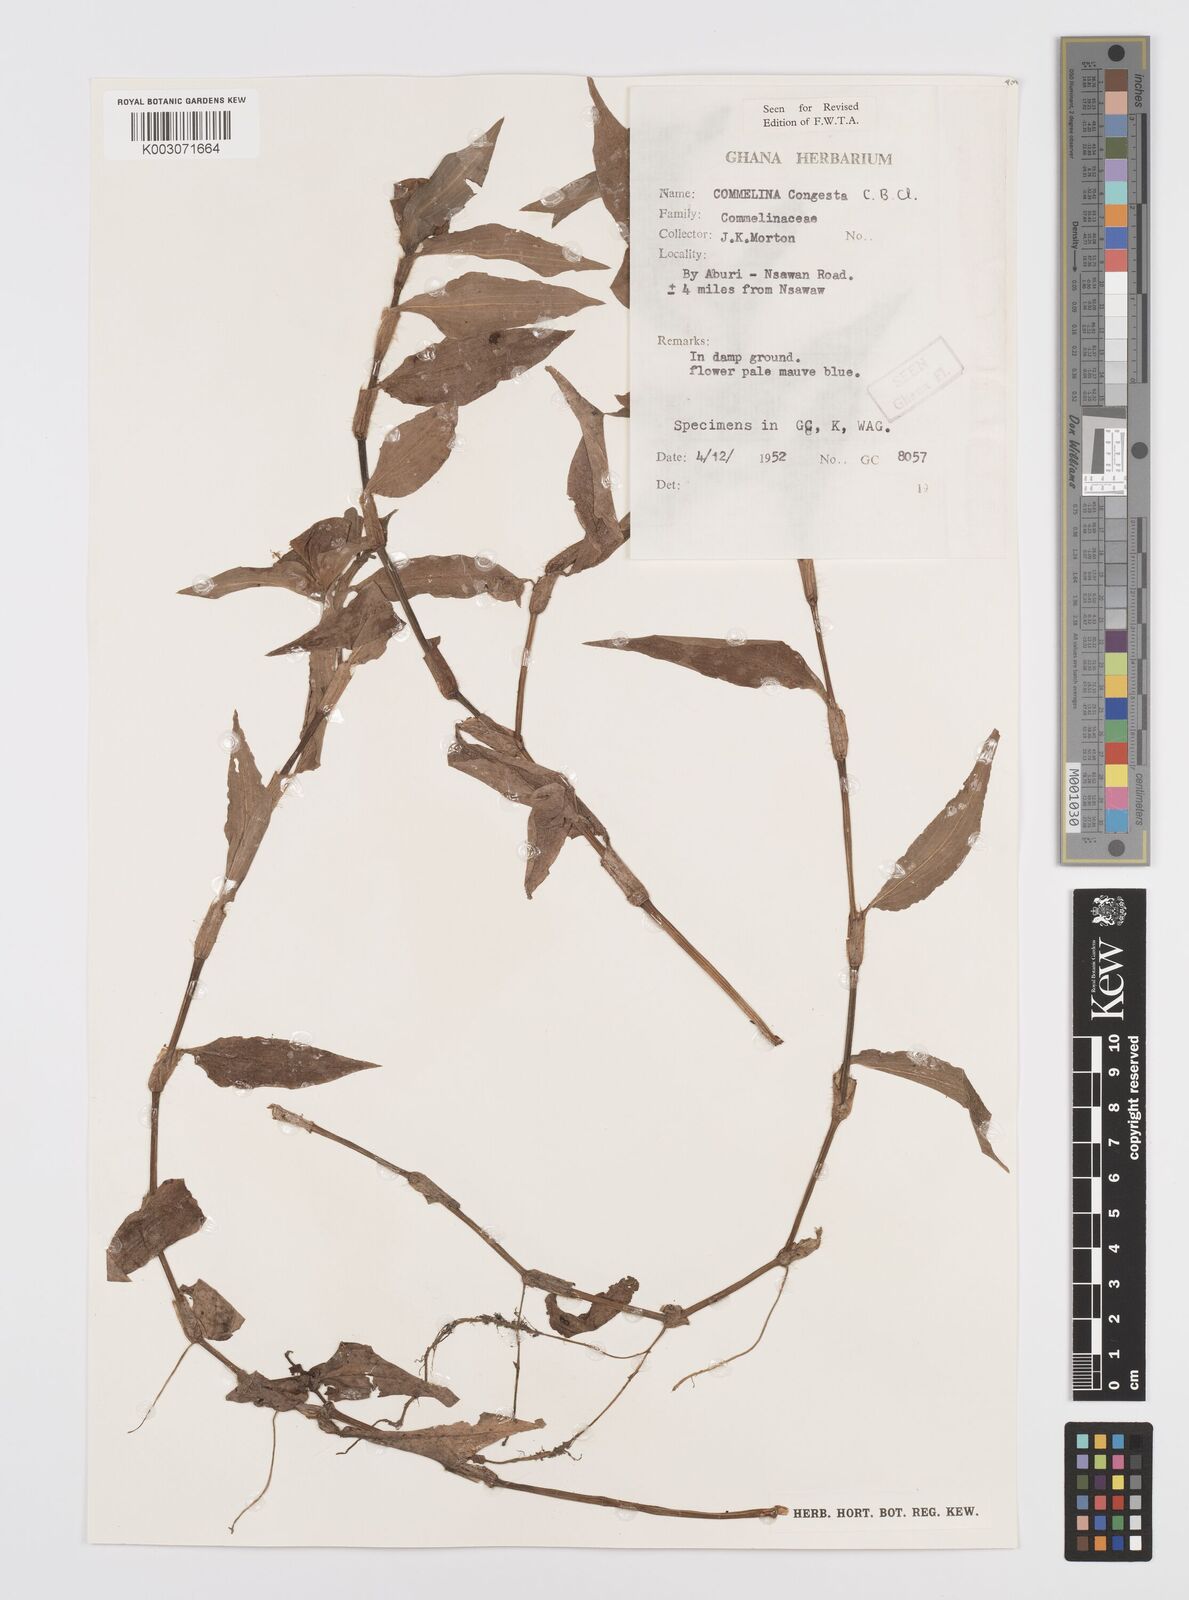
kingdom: Plantae
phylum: Tracheophyta
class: Liliopsida
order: Commelinales
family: Commelinaceae
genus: Commelina
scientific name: Commelina congesta
